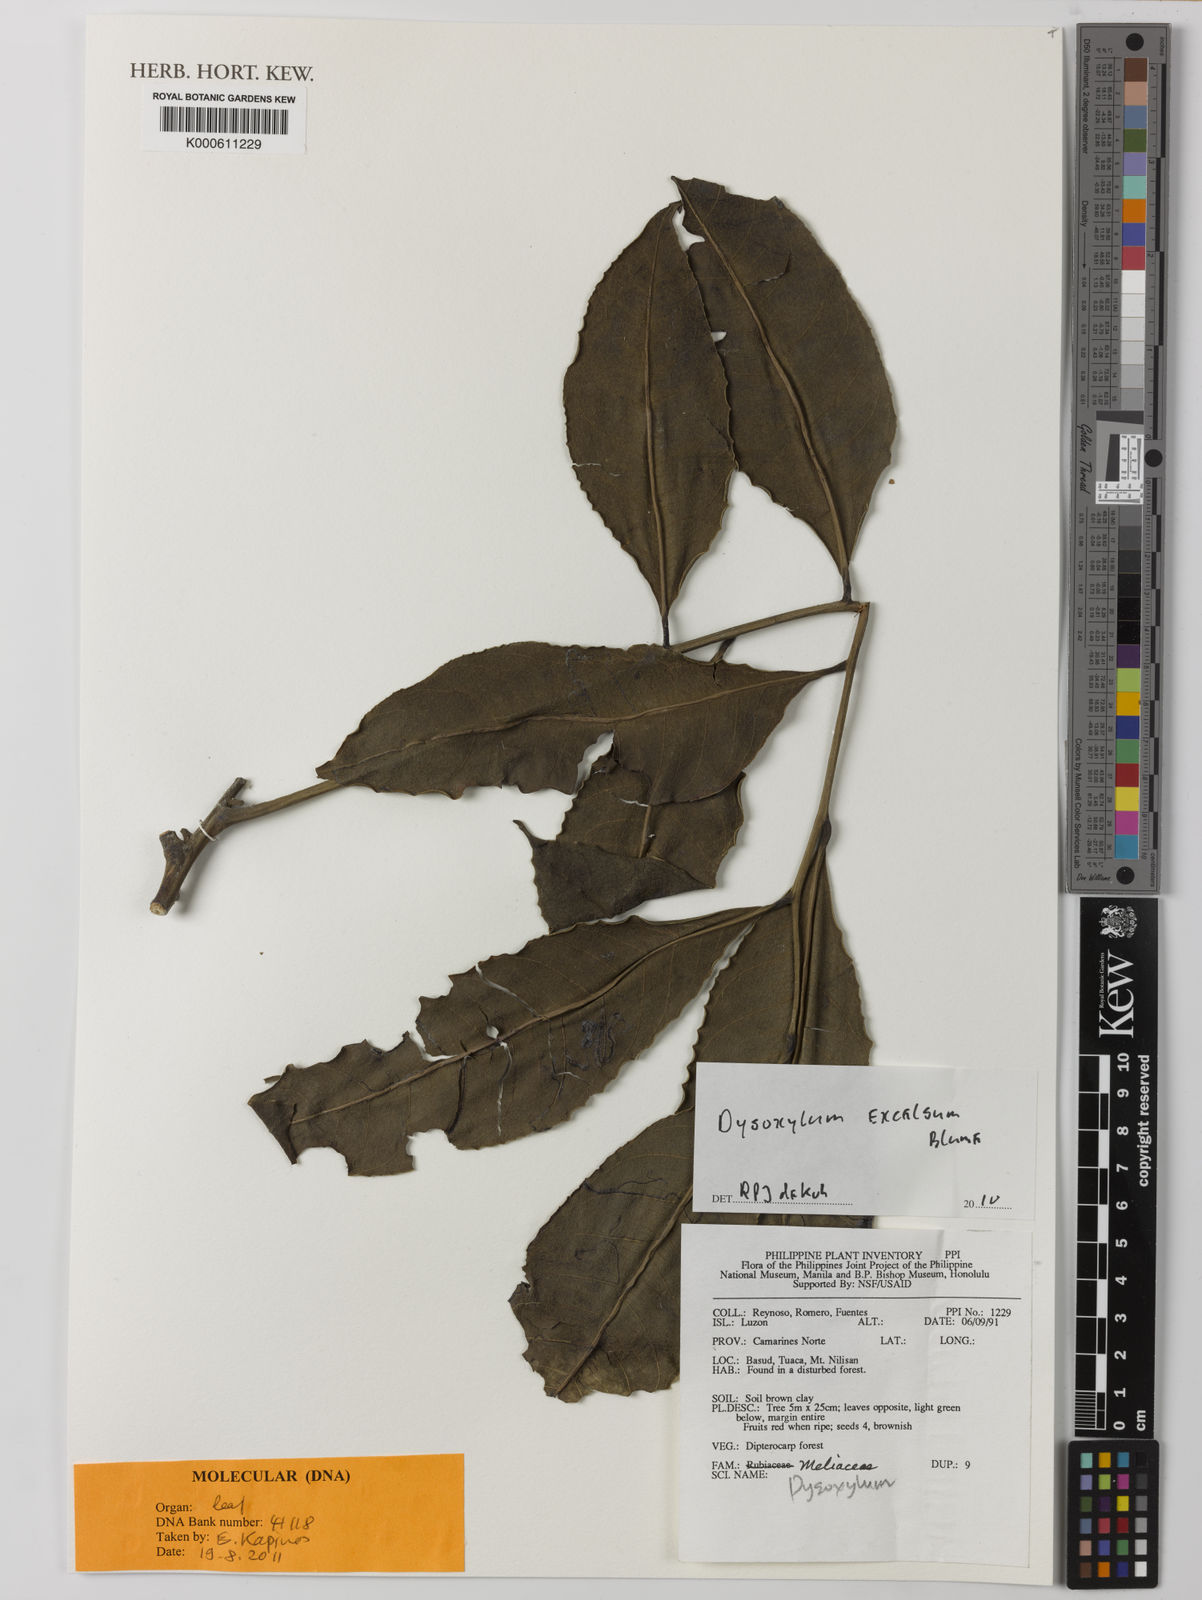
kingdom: Plantae
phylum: Tracheophyta
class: Magnoliopsida
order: Sapindales
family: Meliaceae
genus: Dysoxylum
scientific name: Dysoxylum excelsum
